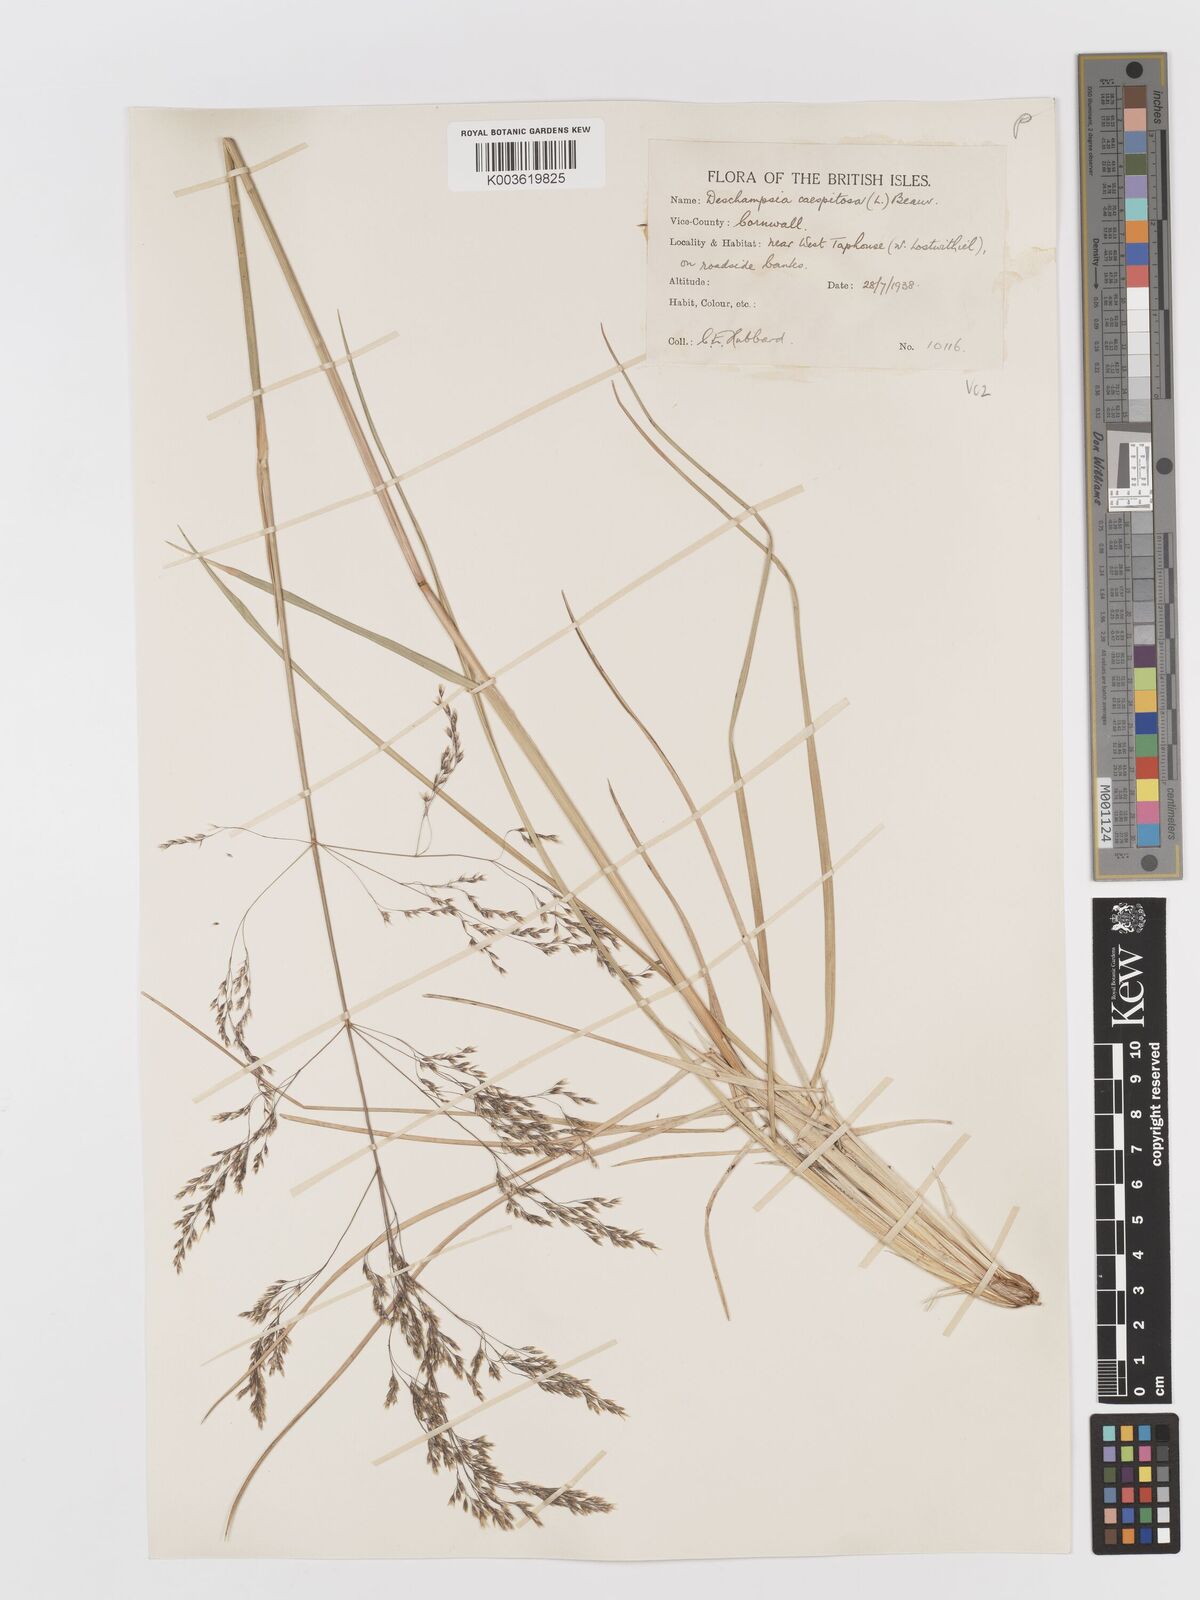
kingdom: Plantae
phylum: Tracheophyta
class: Liliopsida
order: Poales
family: Poaceae
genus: Deschampsia
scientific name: Deschampsia cespitosa
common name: Tufted hair-grass
